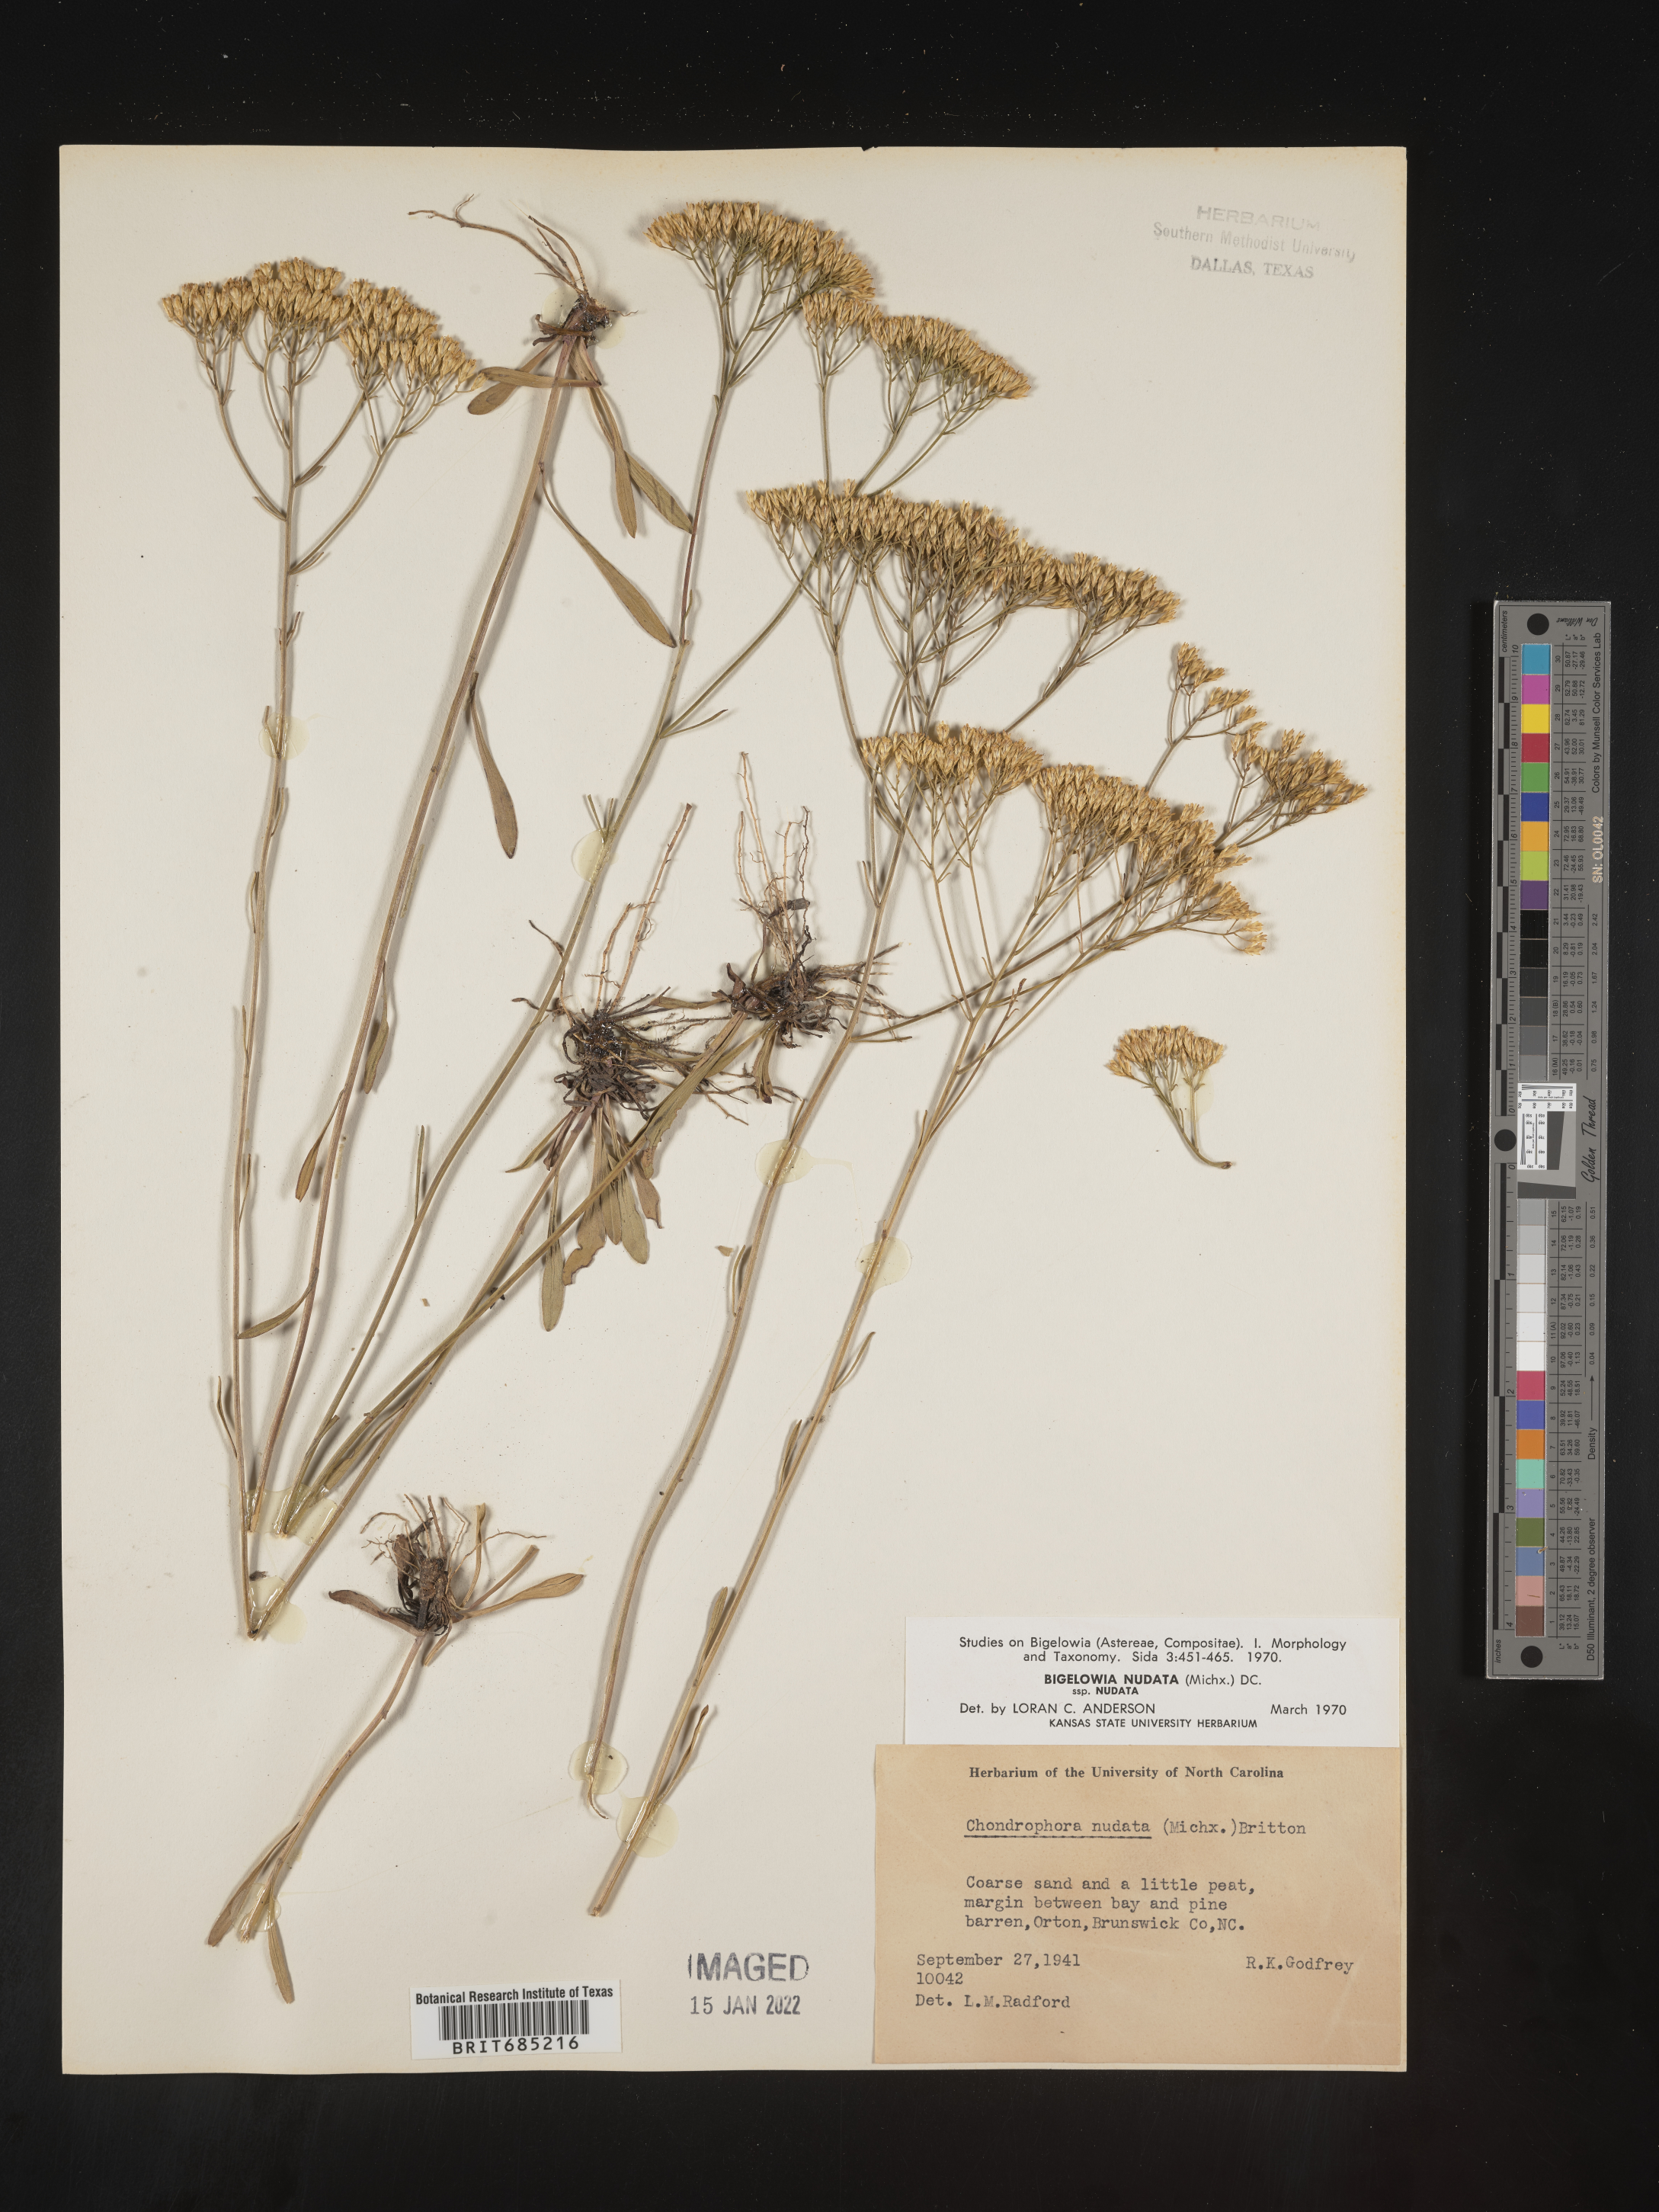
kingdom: Plantae
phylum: Tracheophyta
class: Magnoliopsida
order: Asterales
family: Asteraceae
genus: Bigelowia
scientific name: Bigelowia nudata
